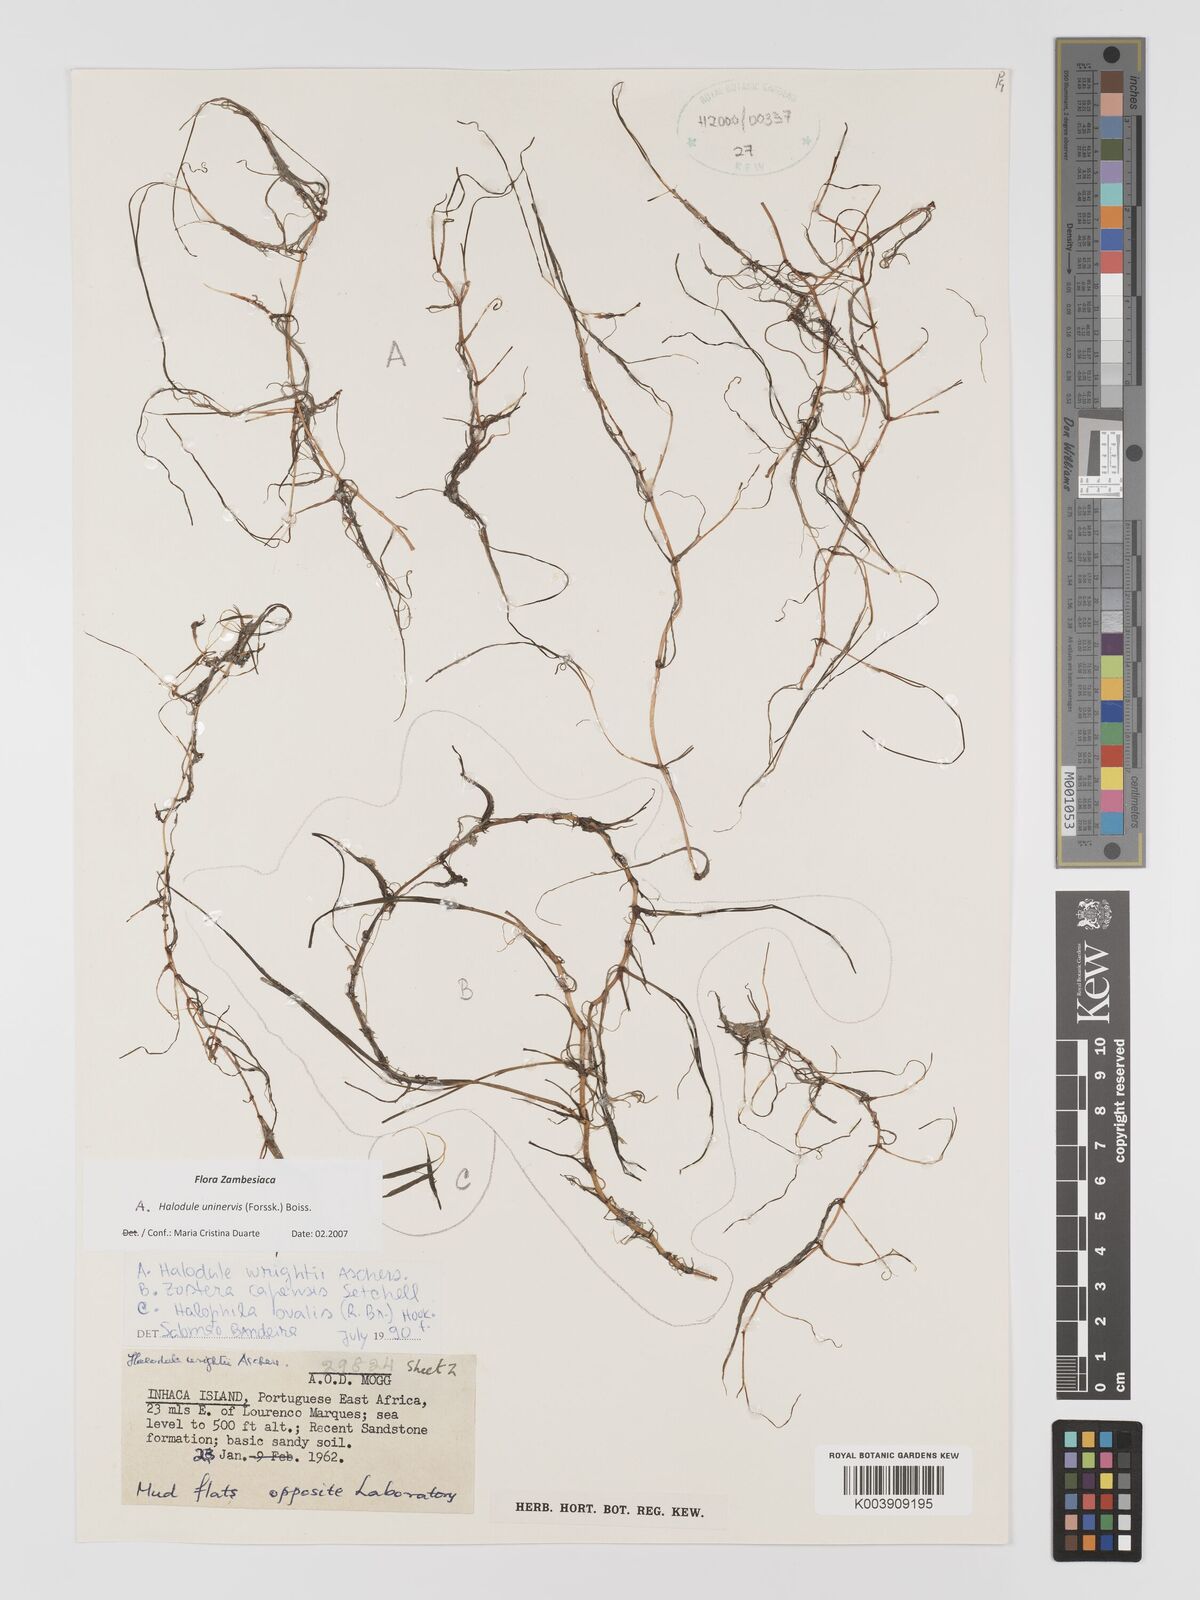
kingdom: Plantae
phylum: Tracheophyta
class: Liliopsida
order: Alismatales
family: Cymodoceaceae
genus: Halodule
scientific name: Halodule uninervis
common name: Narrowleaf seagrass
